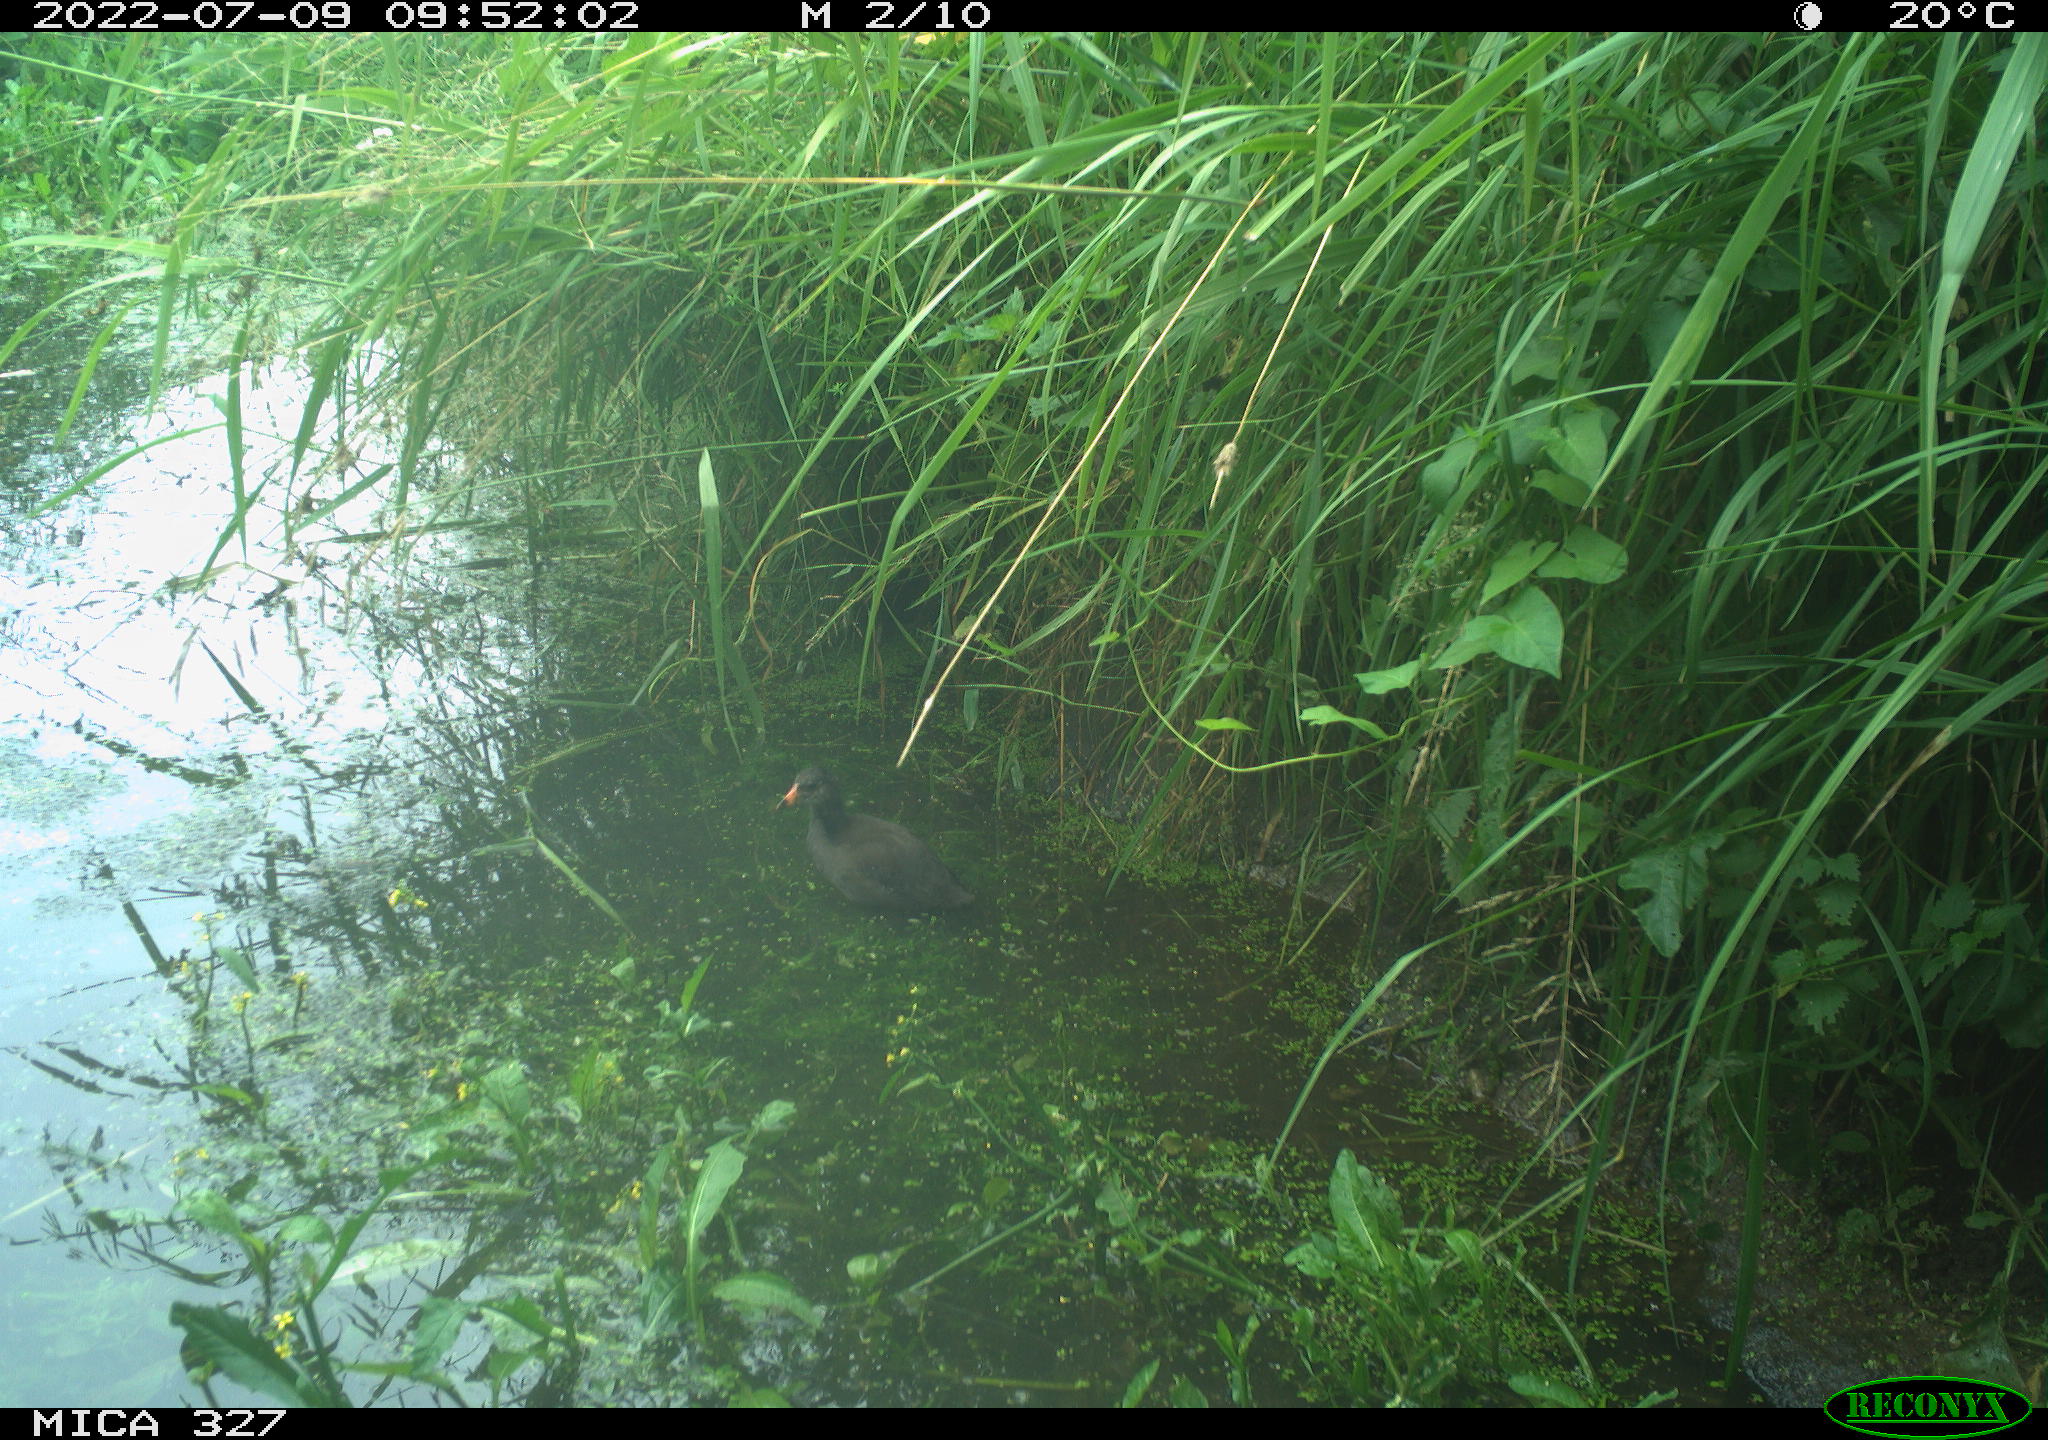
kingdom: Animalia
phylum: Chordata
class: Aves
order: Gruiformes
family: Rallidae
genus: Gallinula
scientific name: Gallinula chloropus
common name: Common moorhen
